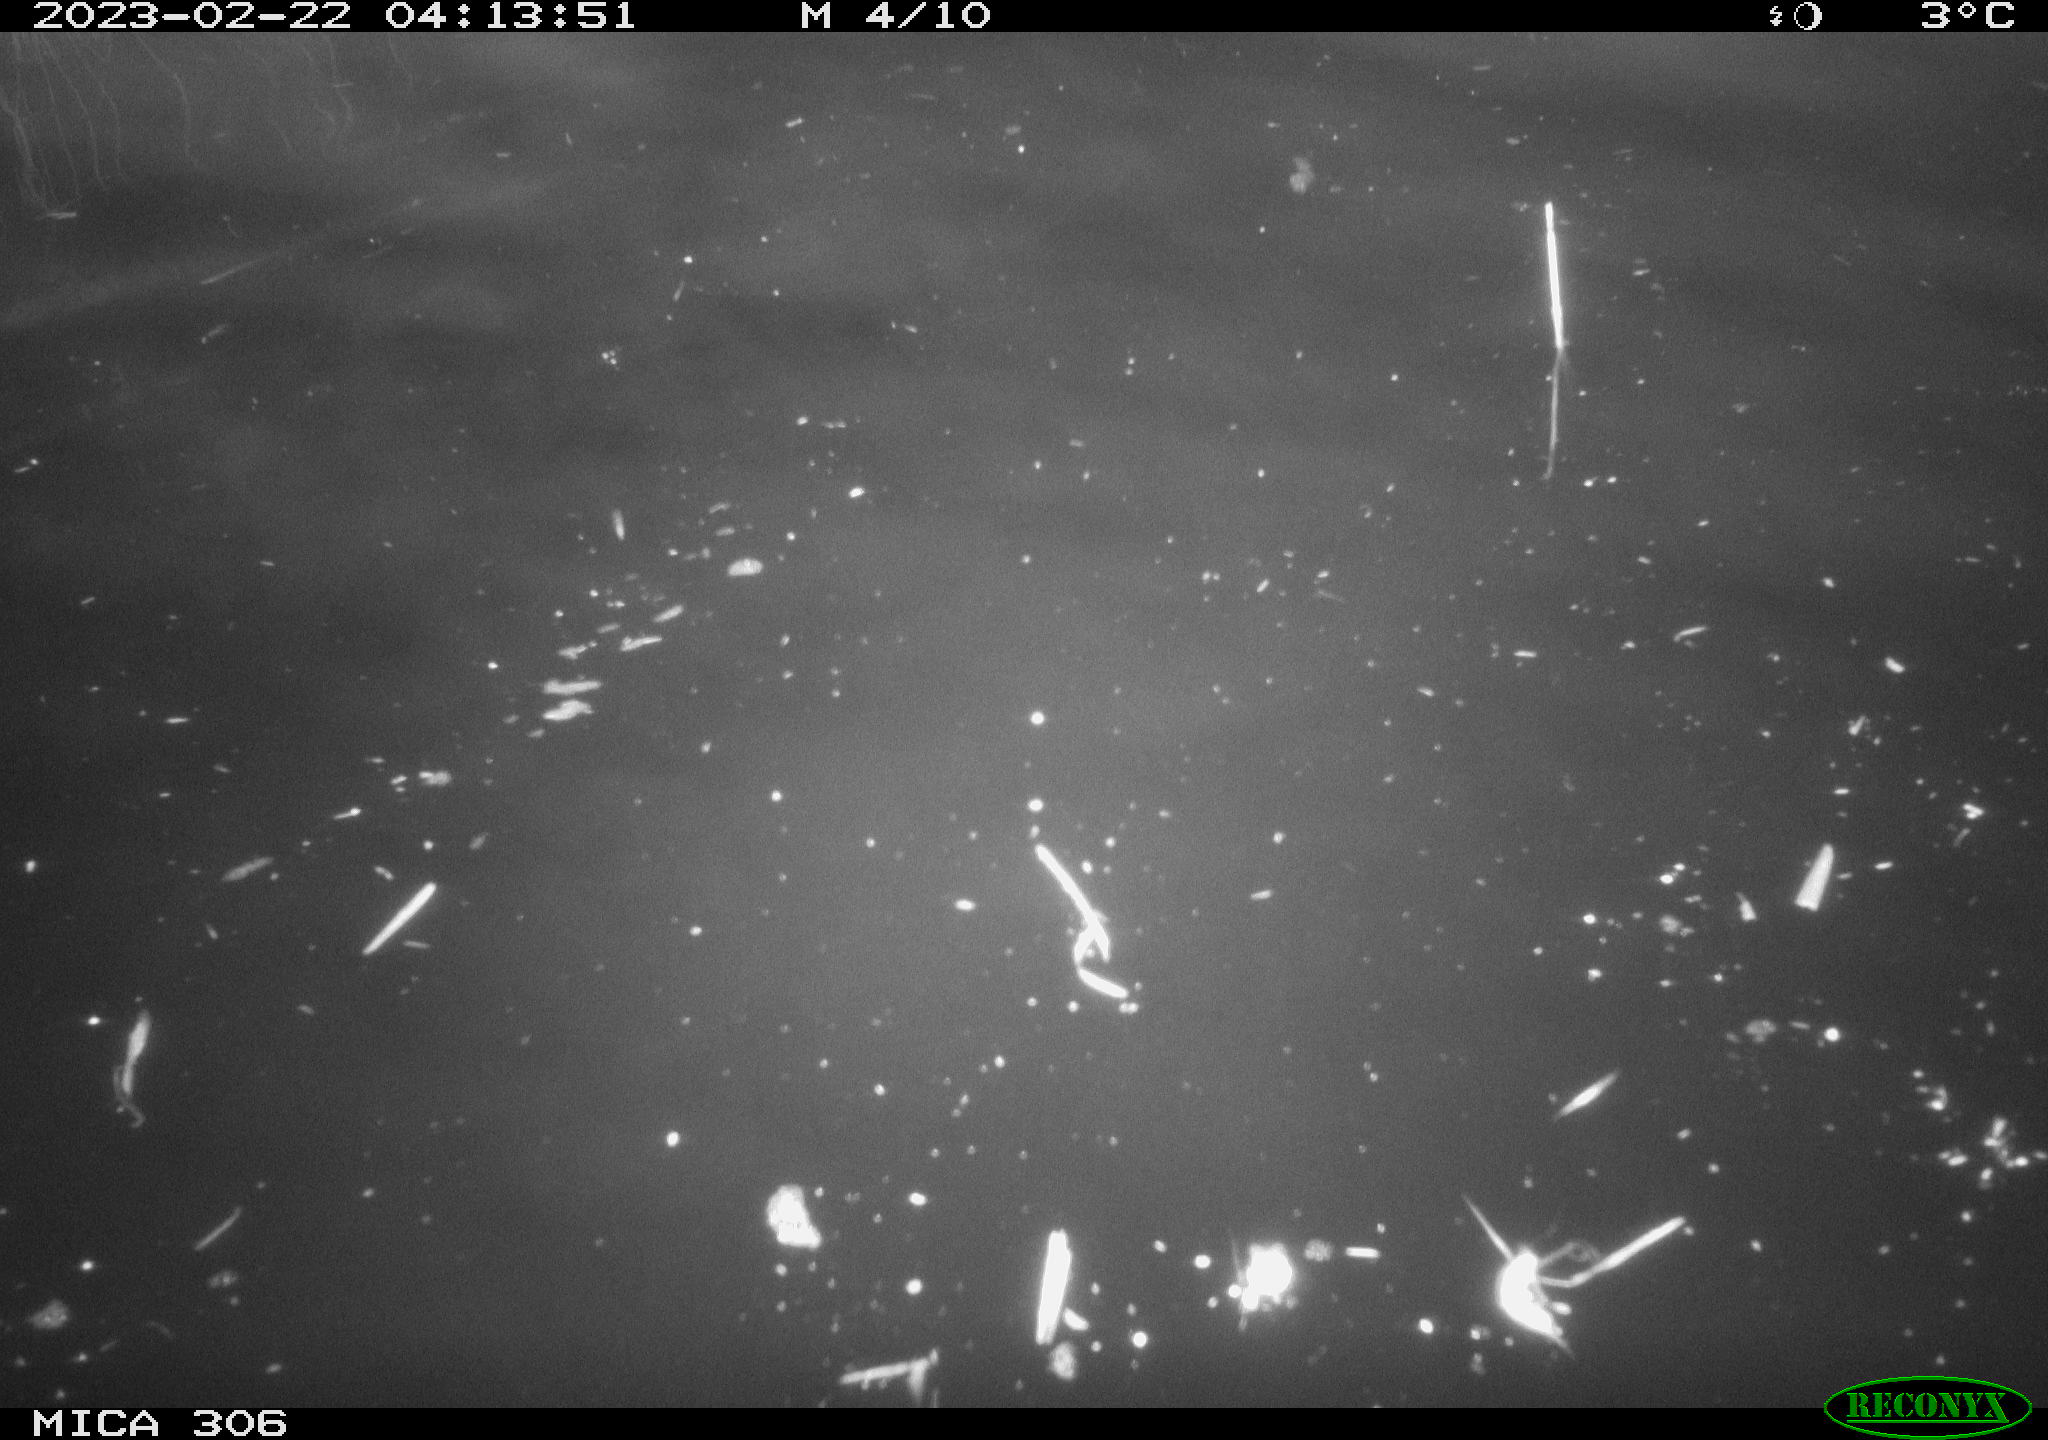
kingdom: Animalia
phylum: Chordata
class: Mammalia
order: Rodentia
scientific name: Rodentia
